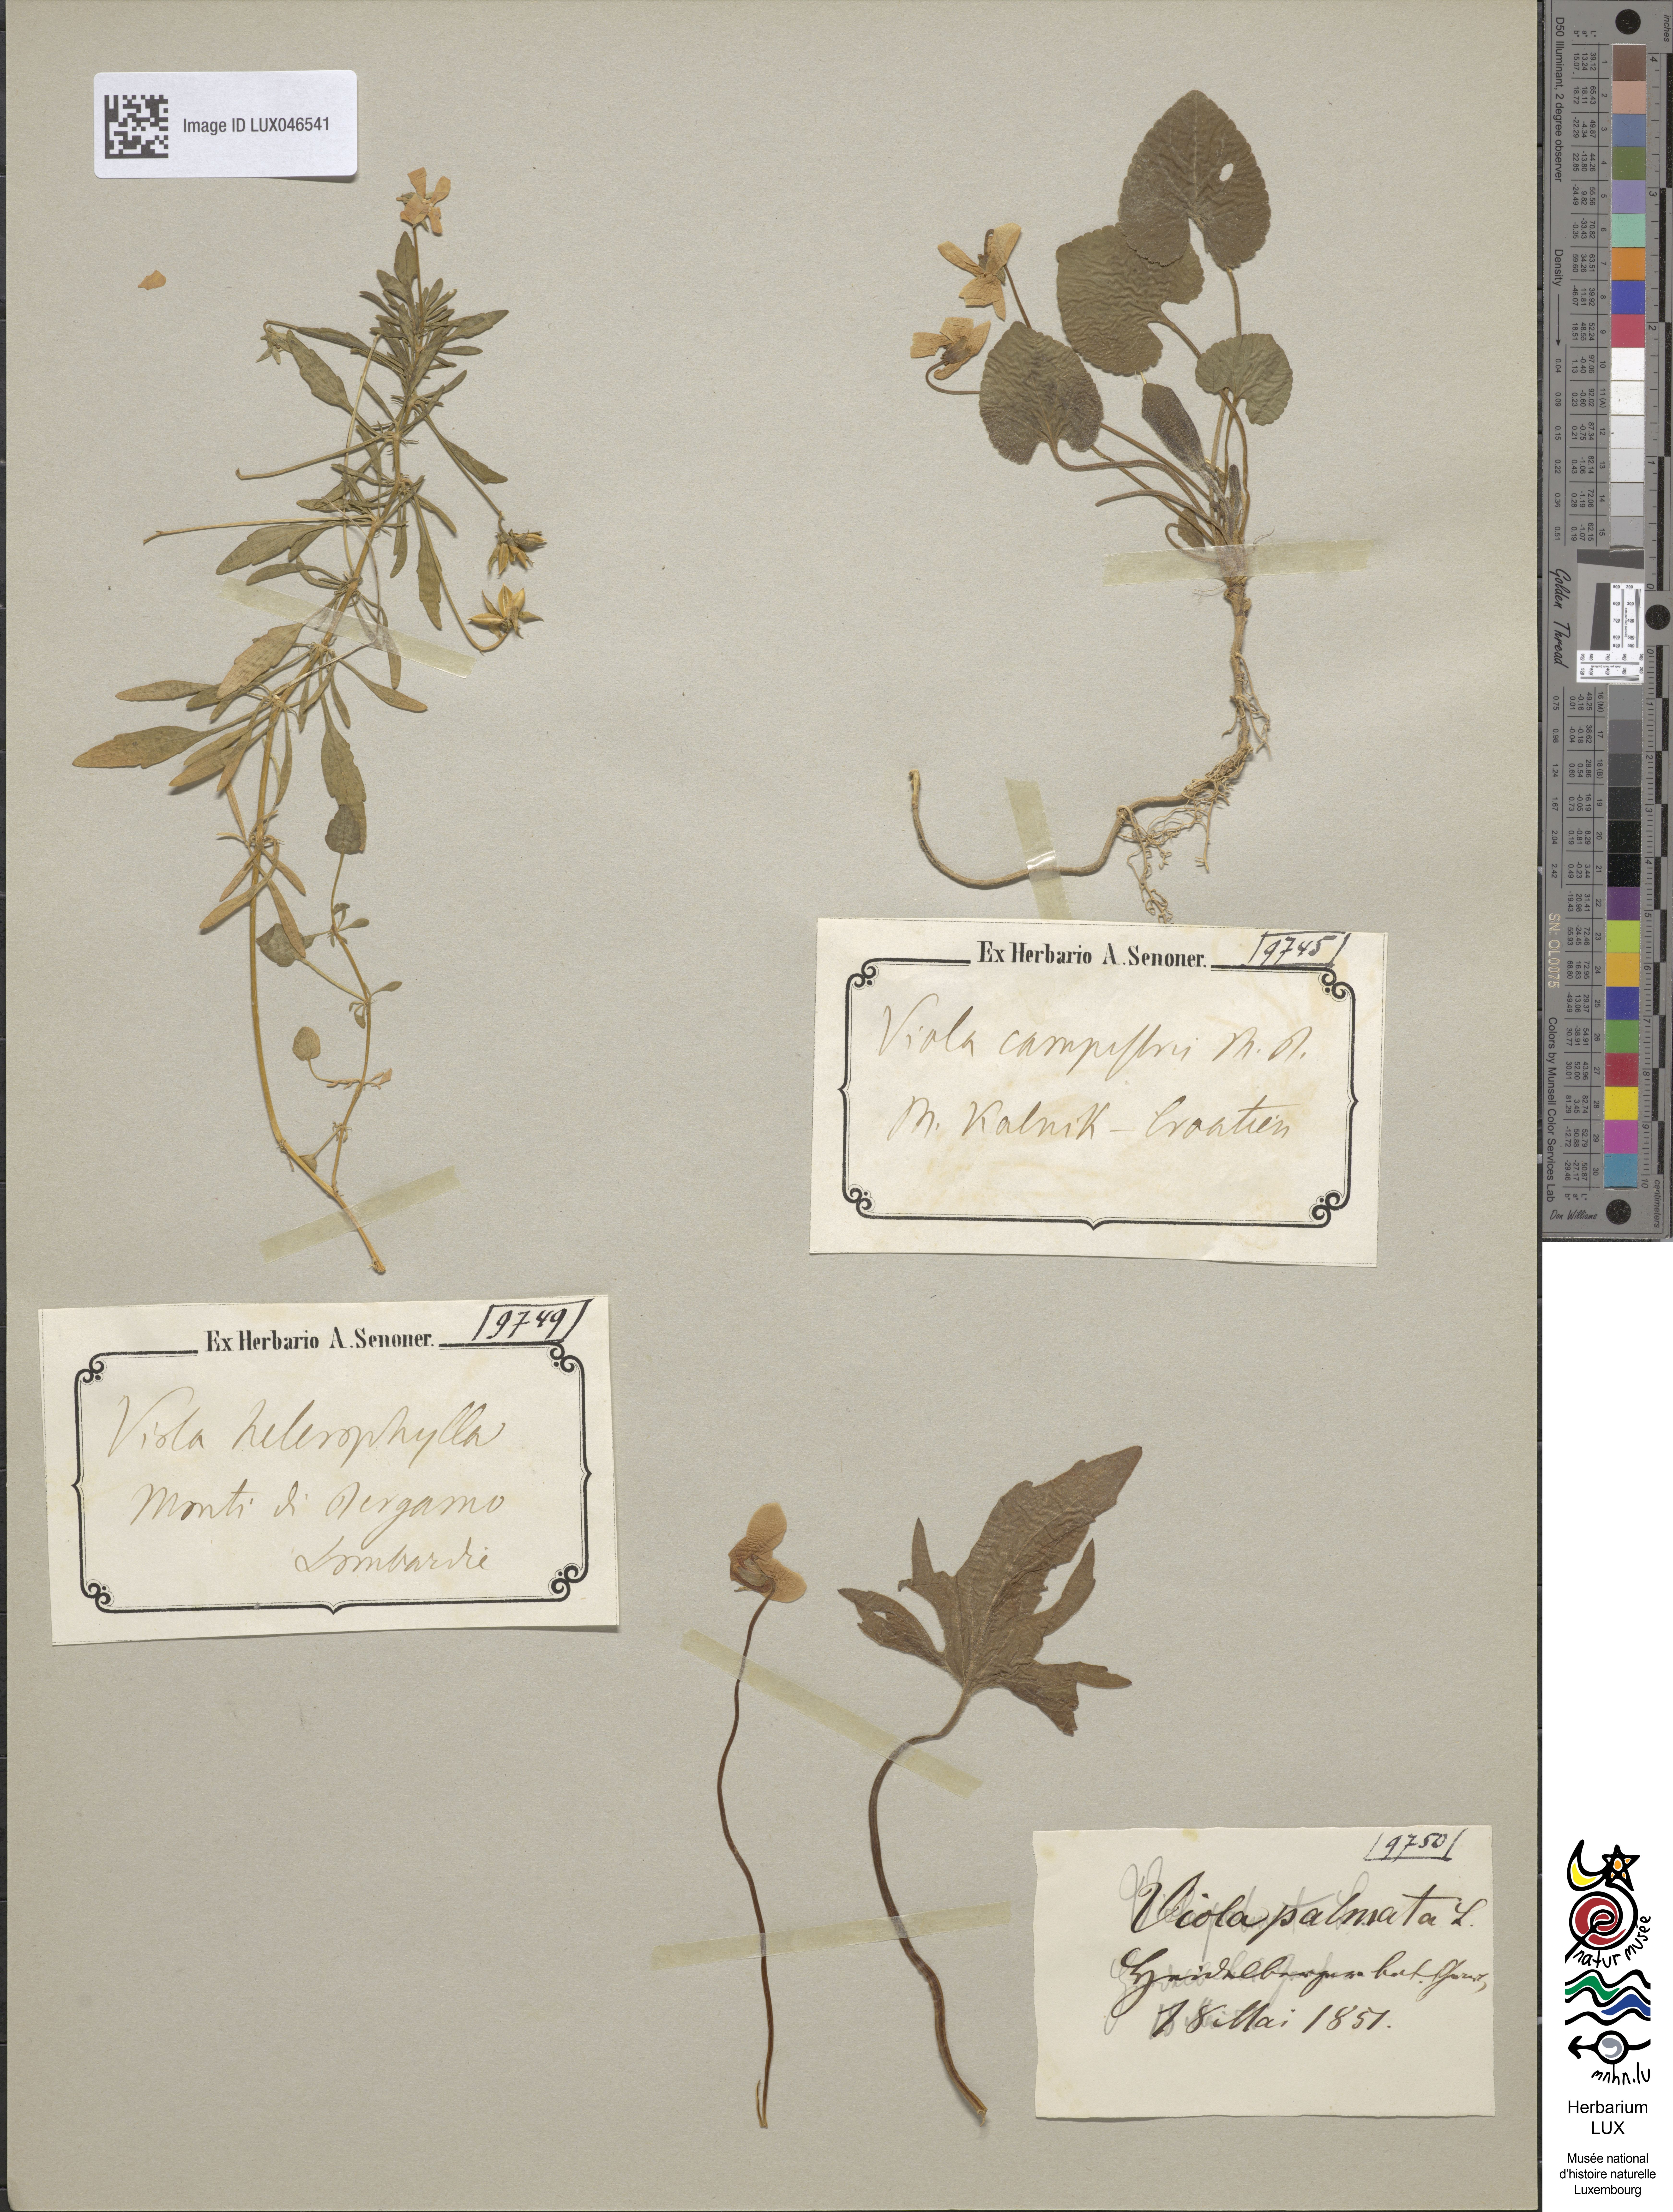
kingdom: Plantae
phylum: Tracheophyta
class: Magnoliopsida
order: Malpighiales
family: Violaceae
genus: Viola
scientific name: Viola bertolonii
